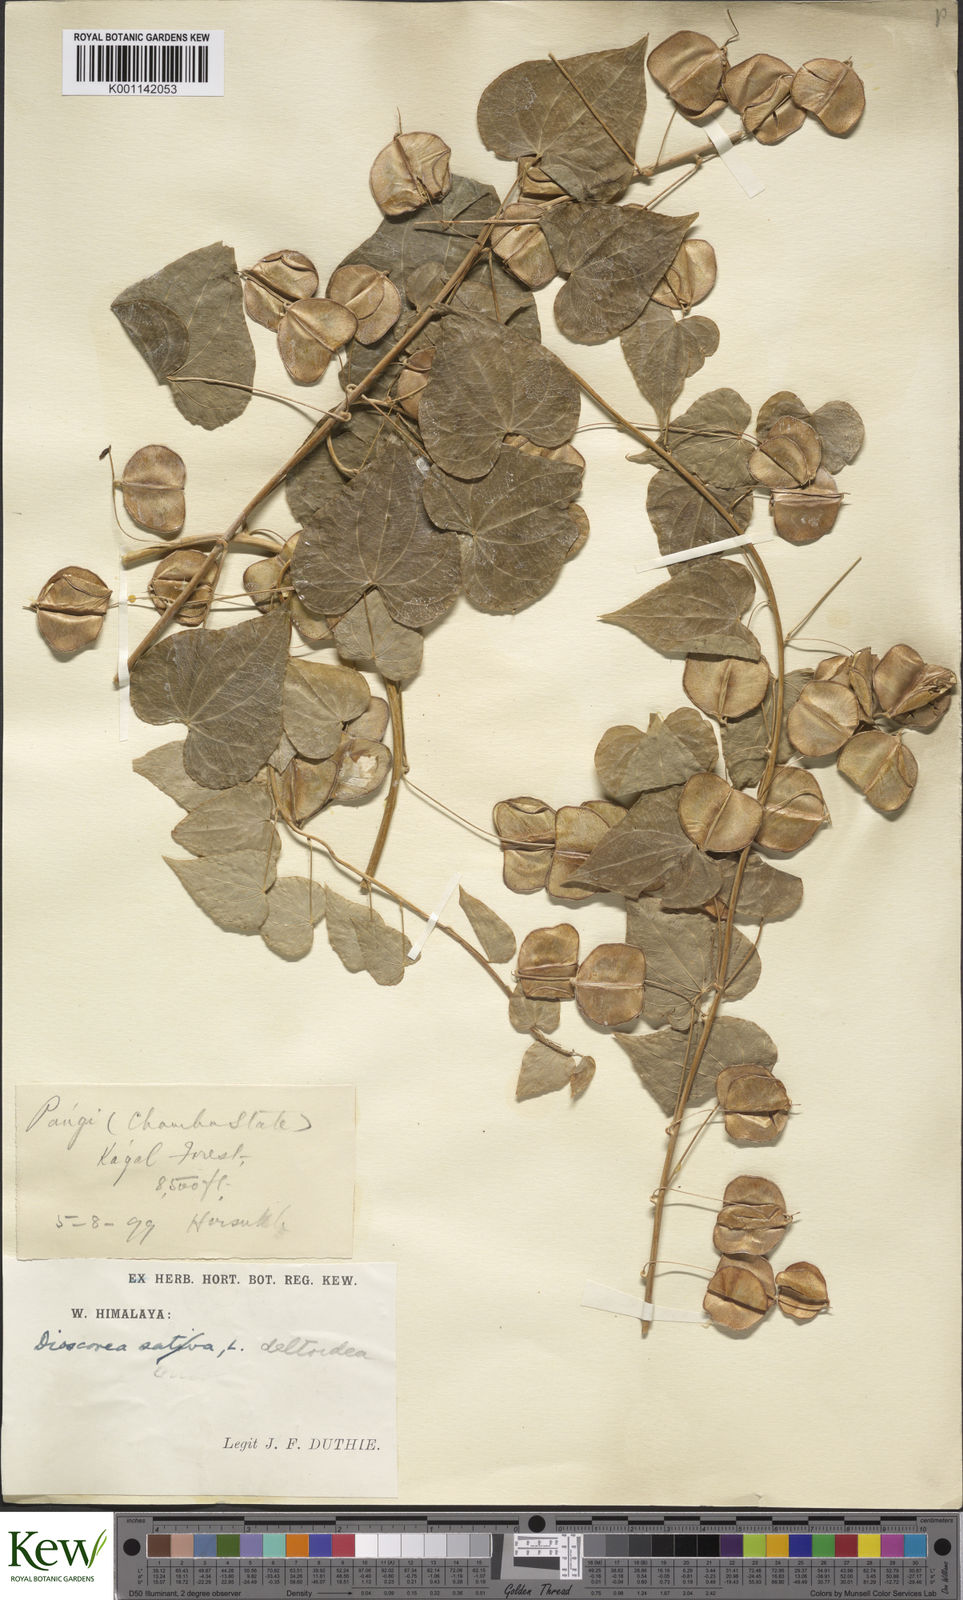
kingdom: Plantae
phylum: Tracheophyta
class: Liliopsida
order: Dioscoreales
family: Dioscoreaceae
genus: Dioscorea
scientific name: Dioscorea deltoidea
